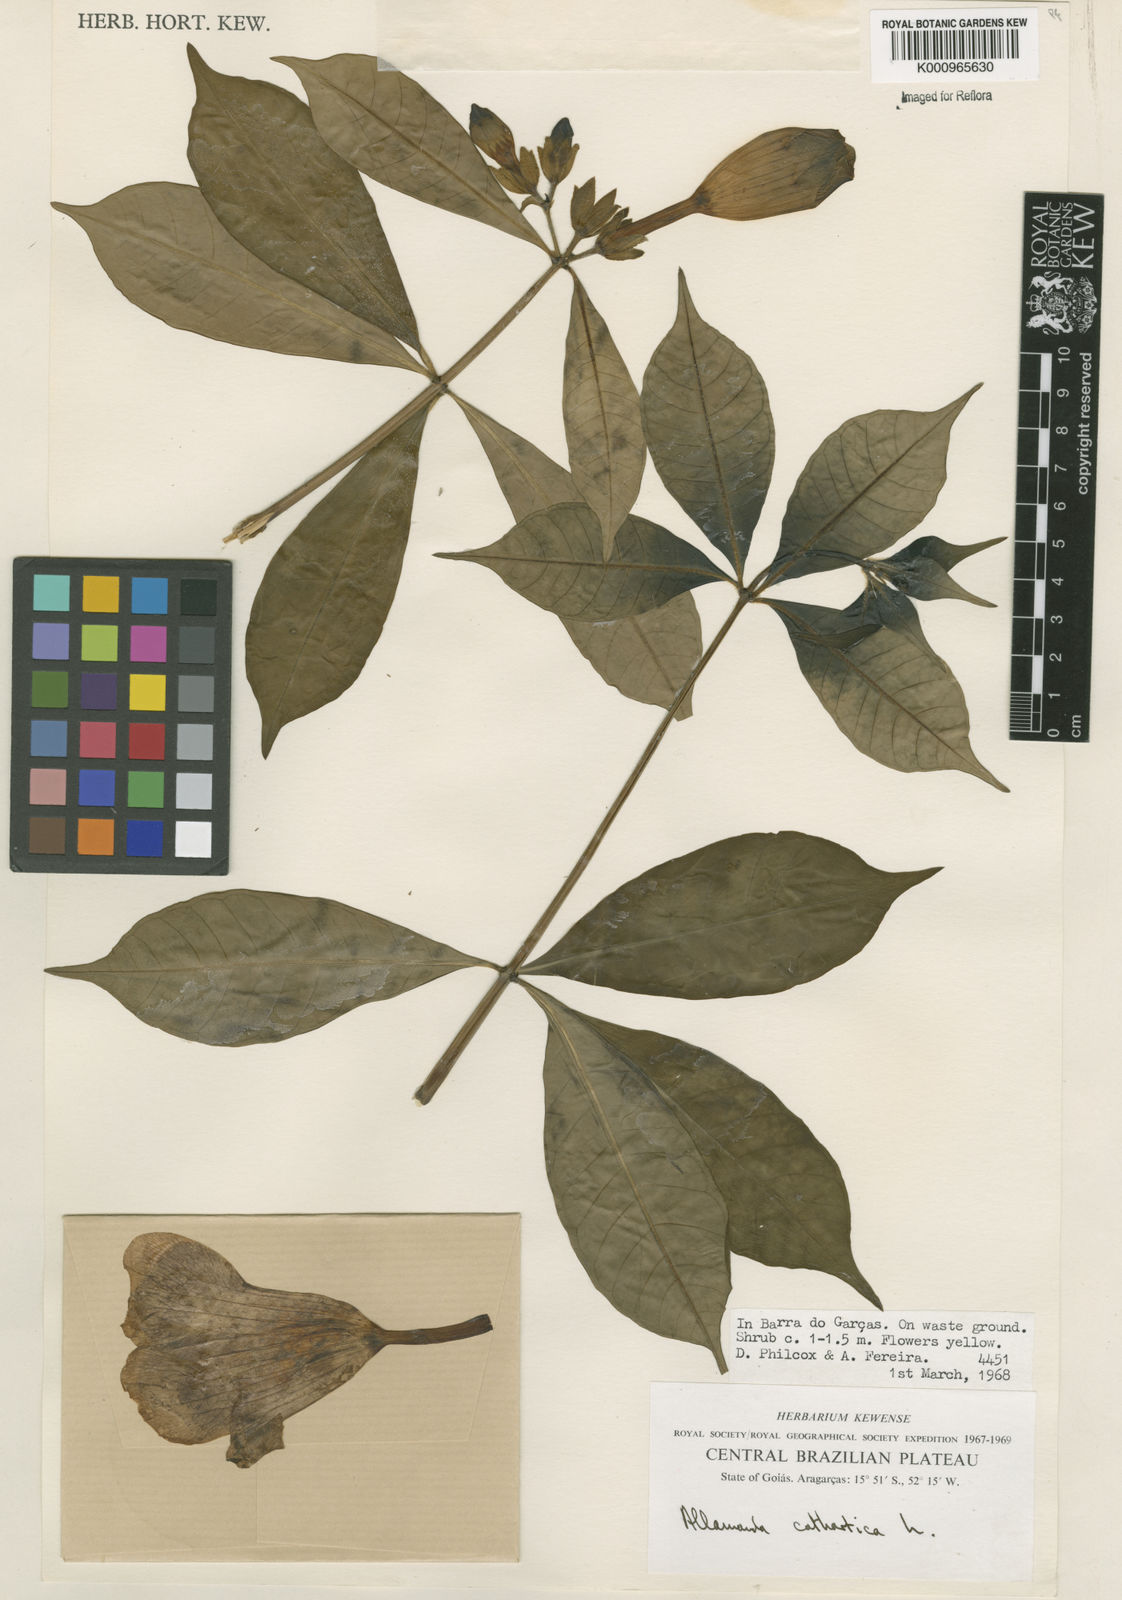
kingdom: Plantae
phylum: Tracheophyta
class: Magnoliopsida
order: Gentianales
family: Apocynaceae
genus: Allamanda
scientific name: Allamanda cathartica
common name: Golden trumpet
